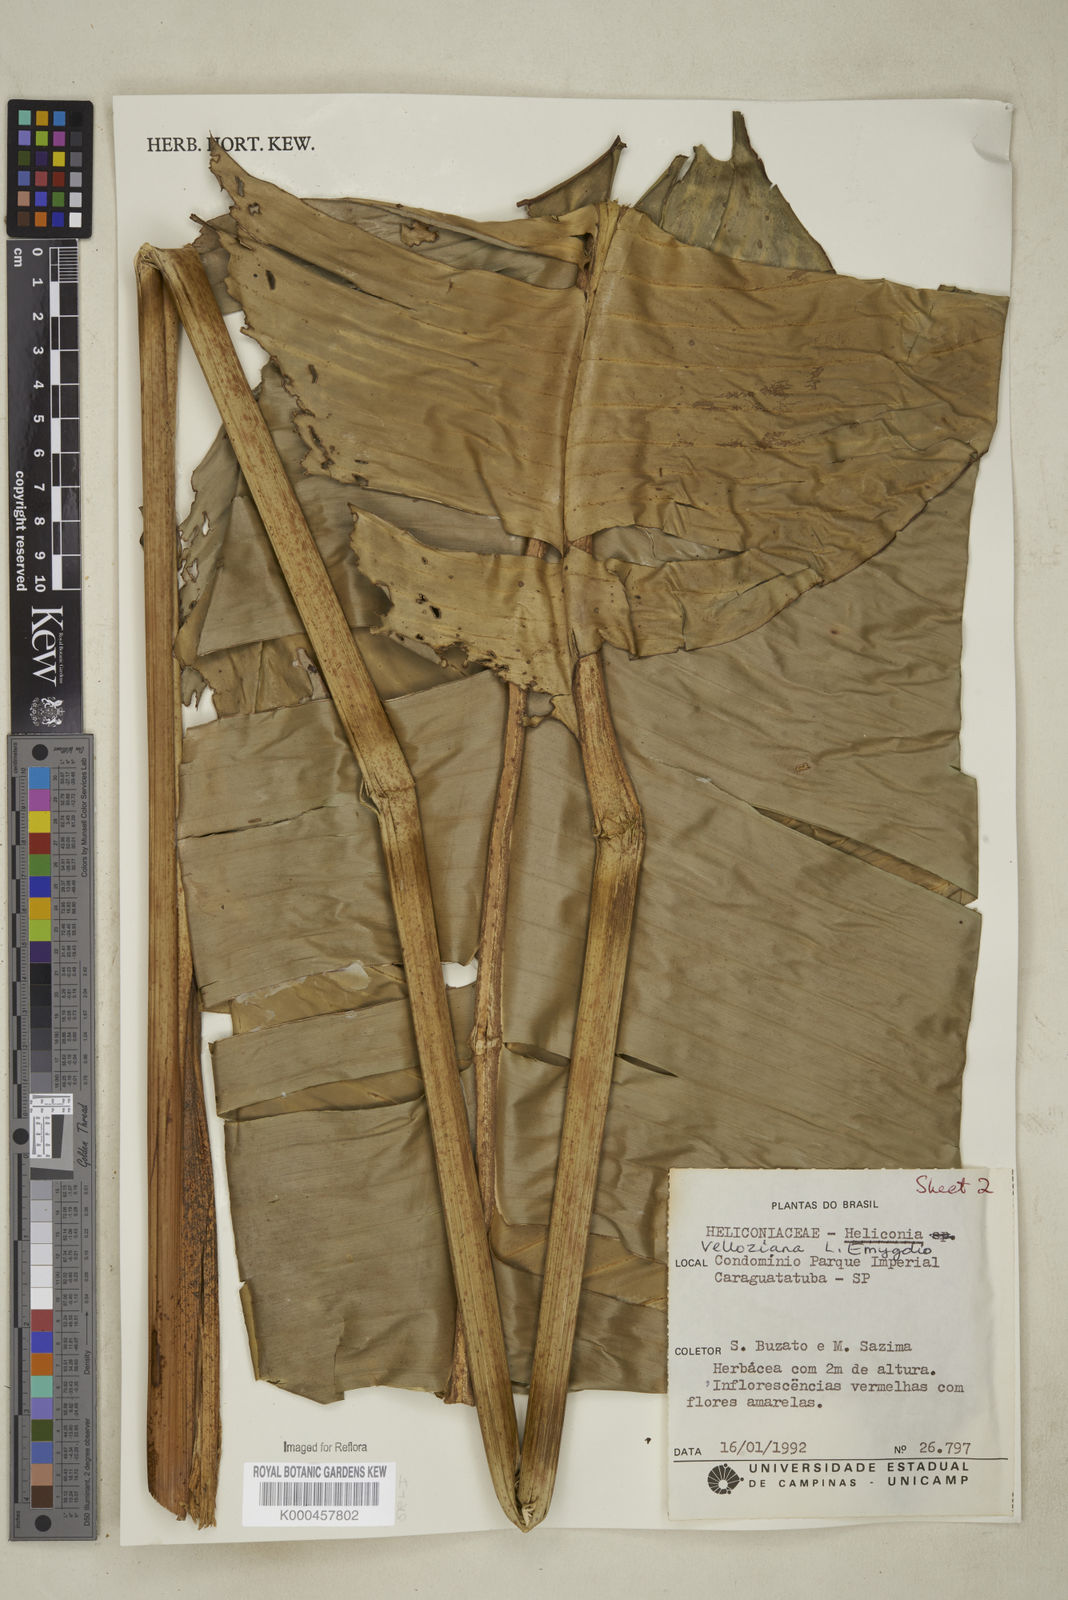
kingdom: Plantae
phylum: Tracheophyta
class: Liliopsida
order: Zingiberales
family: Heliconiaceae
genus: Heliconia
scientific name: Heliconia farinosa
